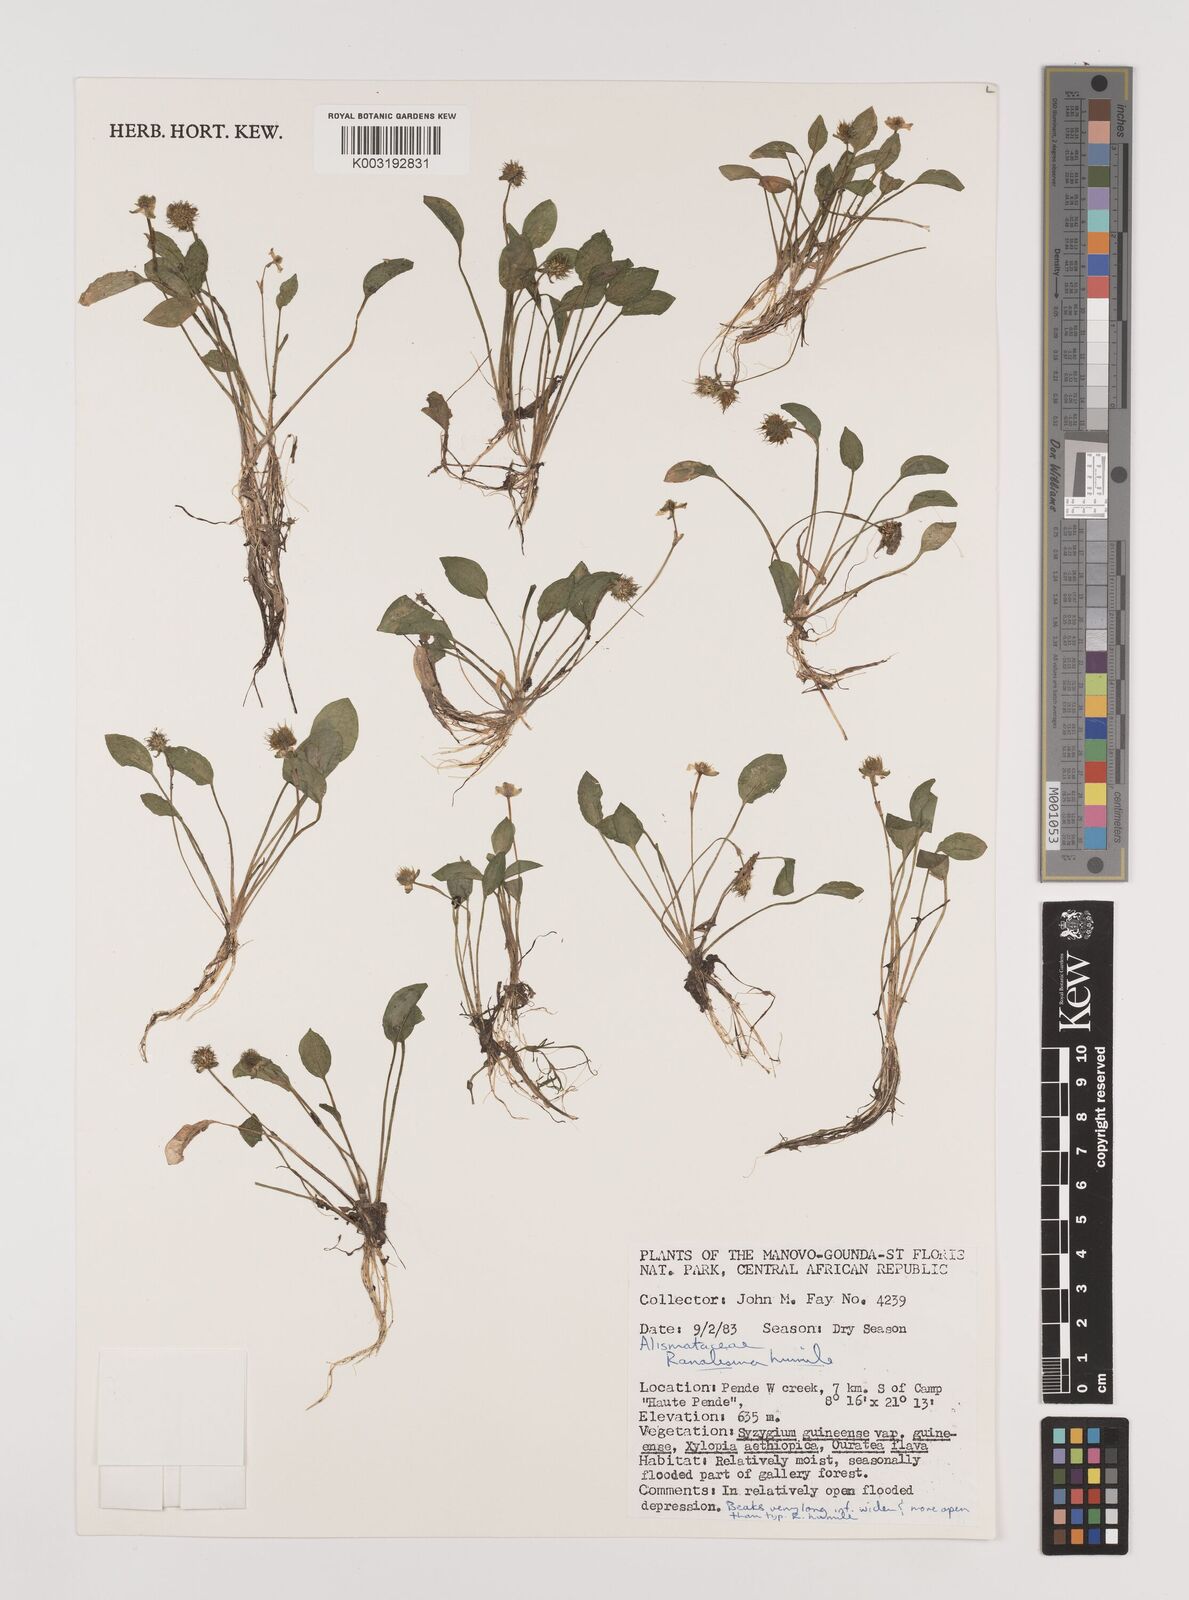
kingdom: Plantae
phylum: Tracheophyta
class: Liliopsida
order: Alismatales
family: Alismataceae
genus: Ranalisma
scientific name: Ranalisma humile
